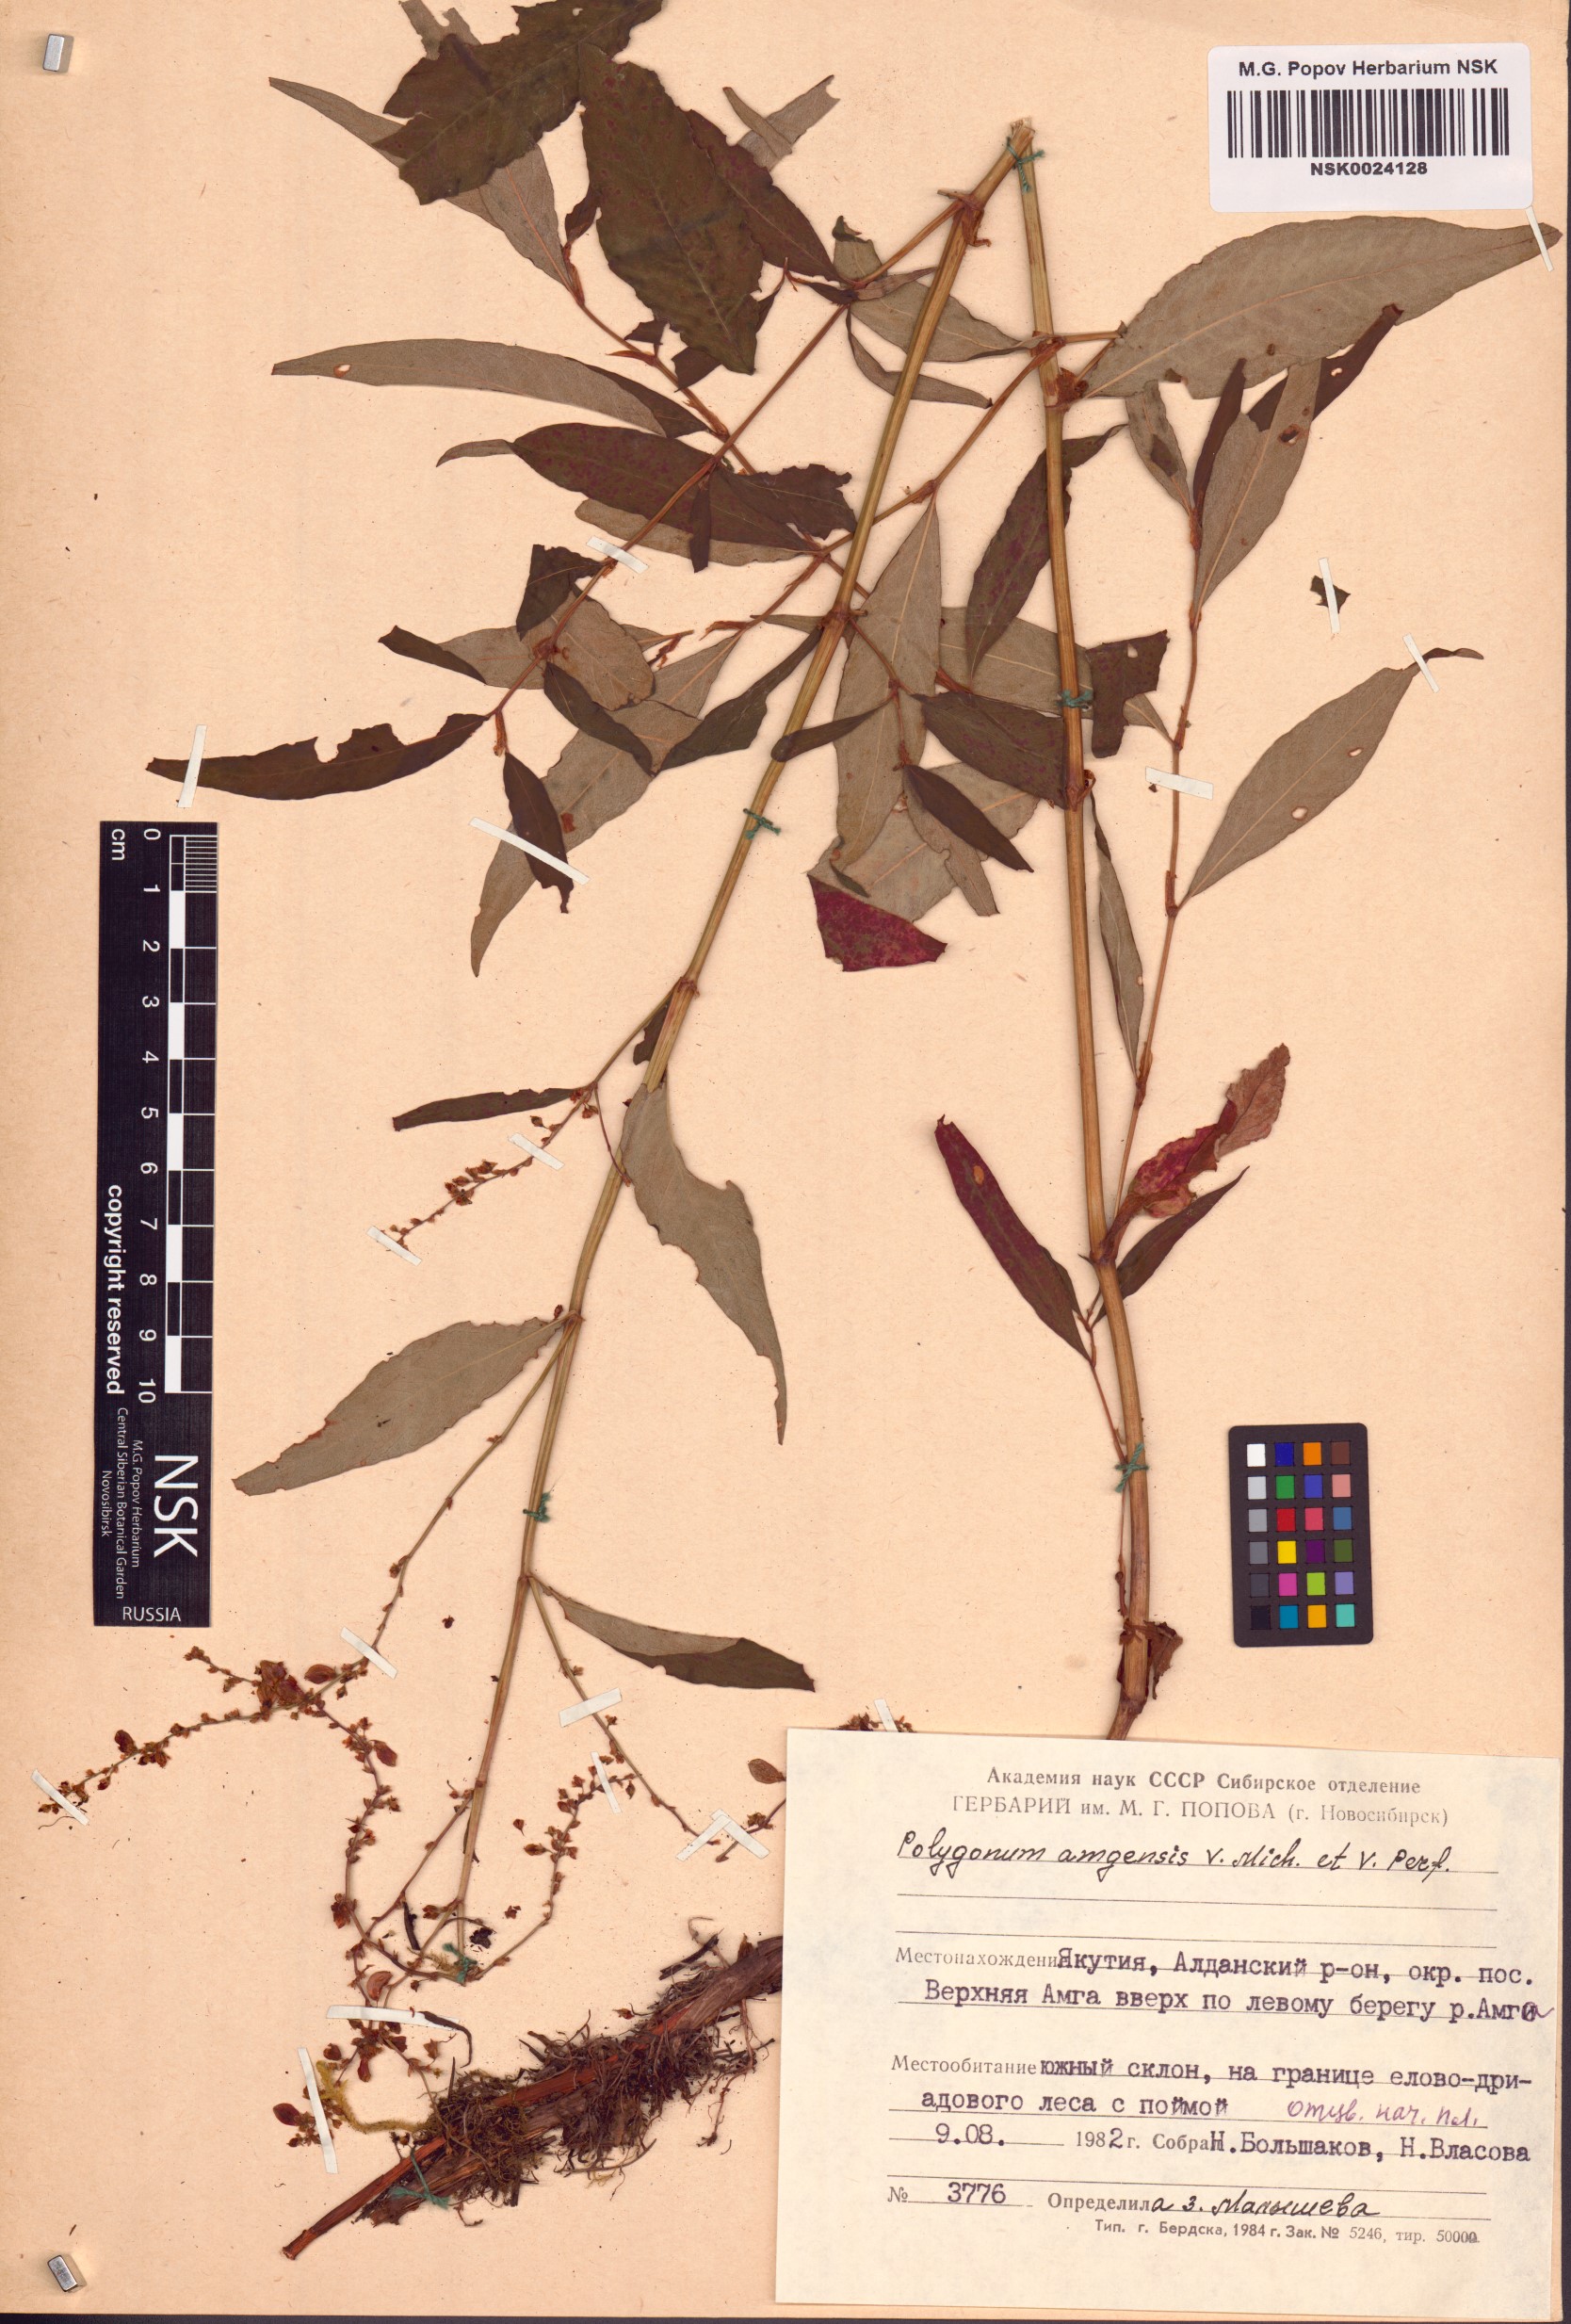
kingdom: Plantae
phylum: Tracheophyta
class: Magnoliopsida
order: Caryophyllales
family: Polygonaceae
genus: Polygonum
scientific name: Polygonum amgense
